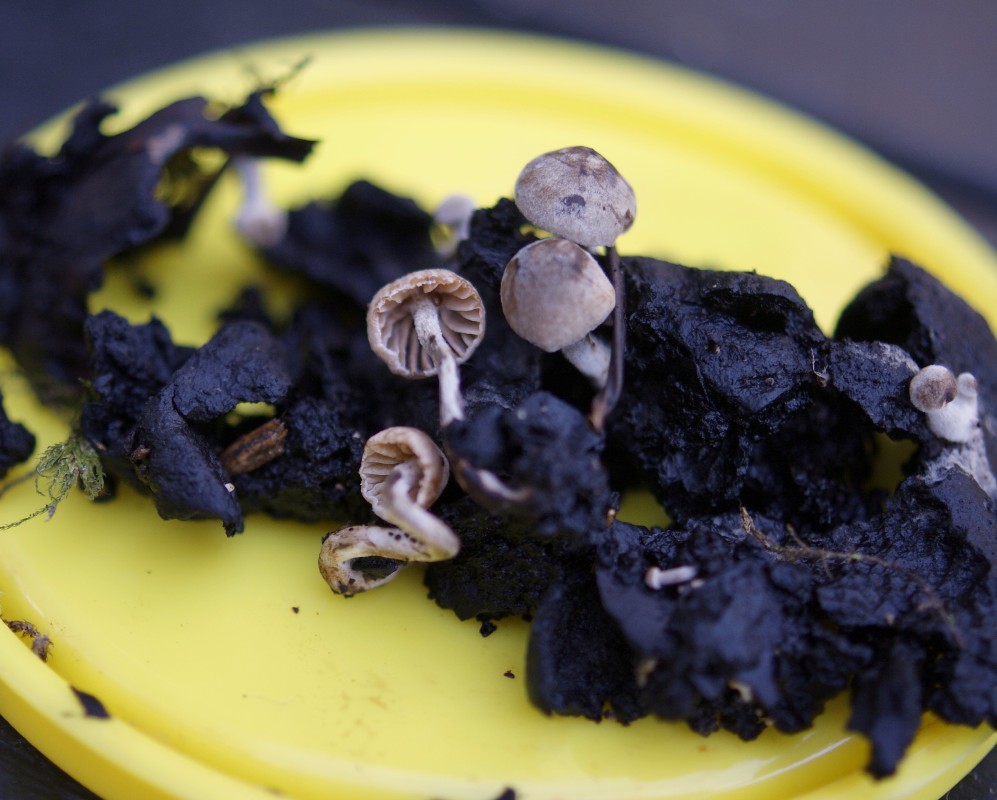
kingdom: Fungi
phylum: Basidiomycota
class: Agaricomycetes
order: Agaricales
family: Lyophyllaceae
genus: Asterophora
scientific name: Asterophora parasitica
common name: grå snyltehat
